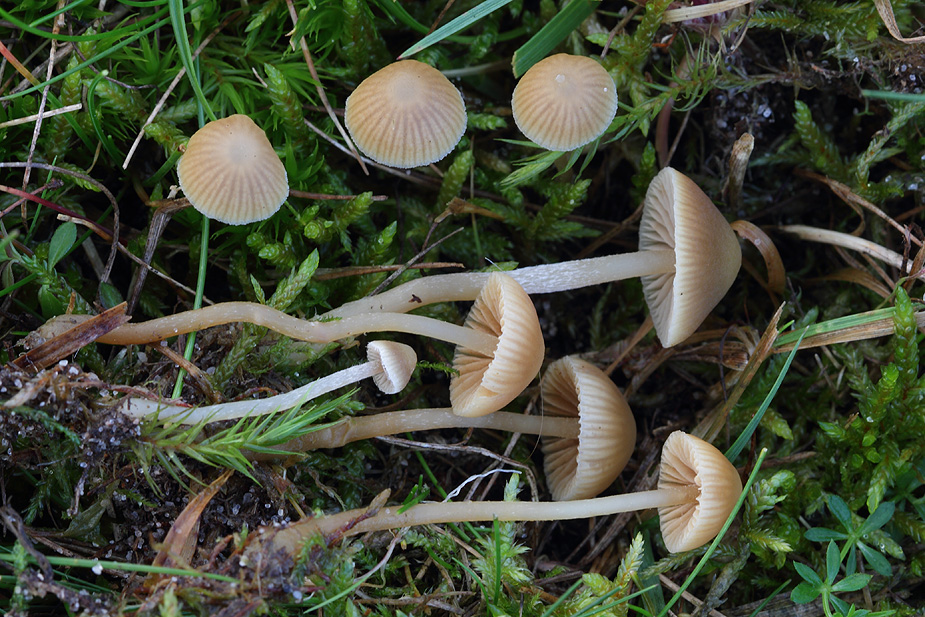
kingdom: Fungi
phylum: Basidiomycota
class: Agaricomycetes
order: Agaricales
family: Hymenogastraceae
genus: Galerina
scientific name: Galerina mniophila
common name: olivengul hjelmhat
